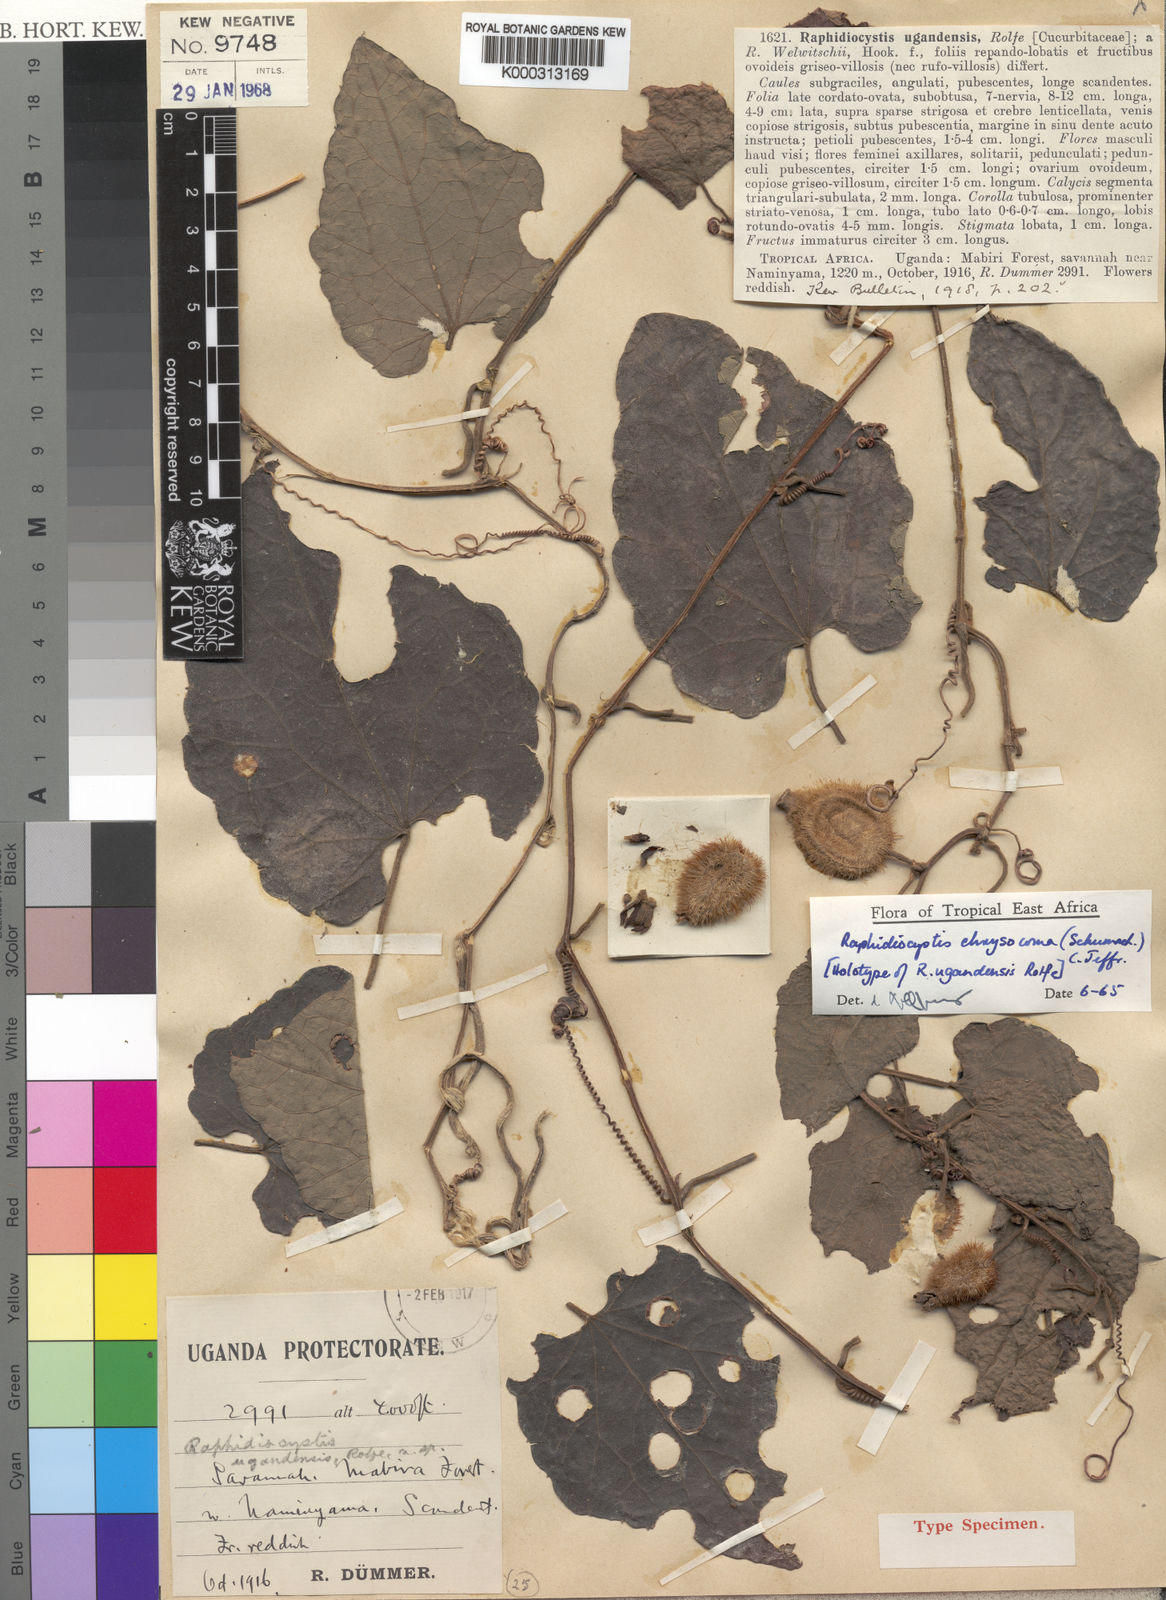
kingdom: Plantae
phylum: Tracheophyta
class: Magnoliopsida
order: Cucurbitales
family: Cucurbitaceae
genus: Raphidiocystis
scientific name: Raphidiocystis chrysocoma
